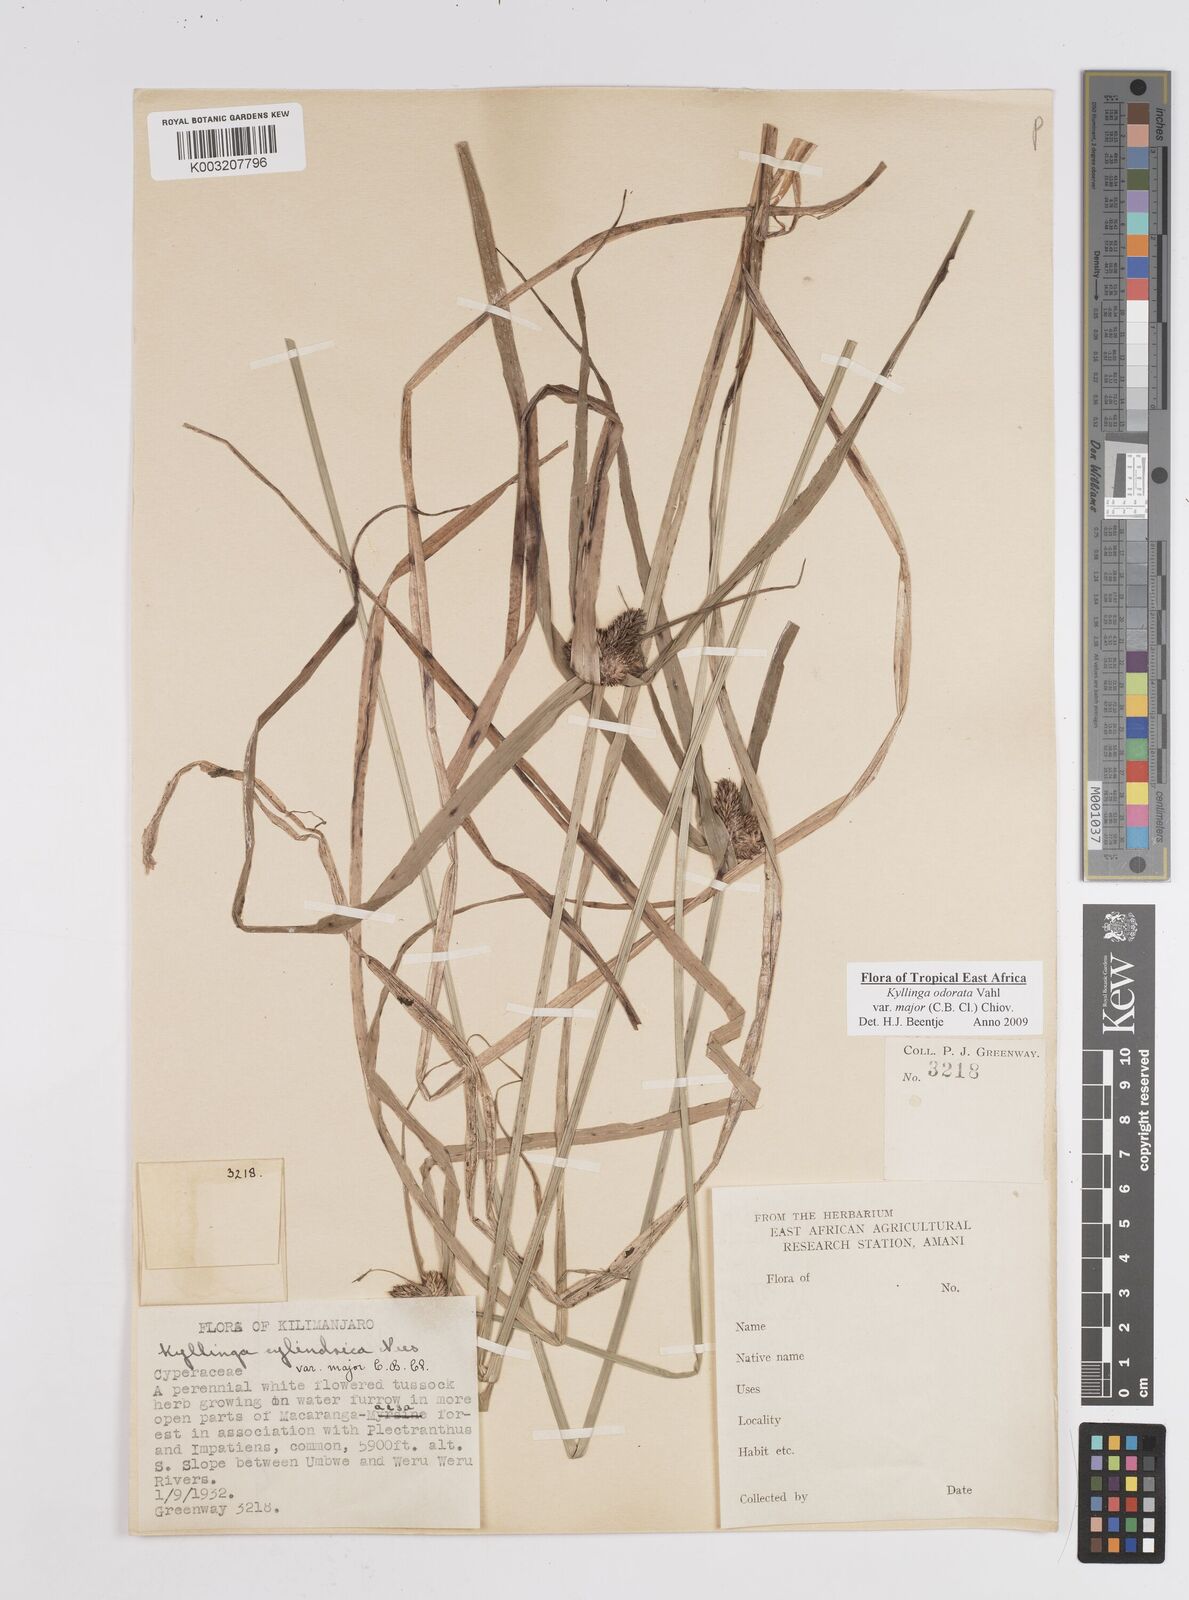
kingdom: Plantae
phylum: Tracheophyta
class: Liliopsida
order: Poales
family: Cyperaceae
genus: Cyperus
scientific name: Cyperus
